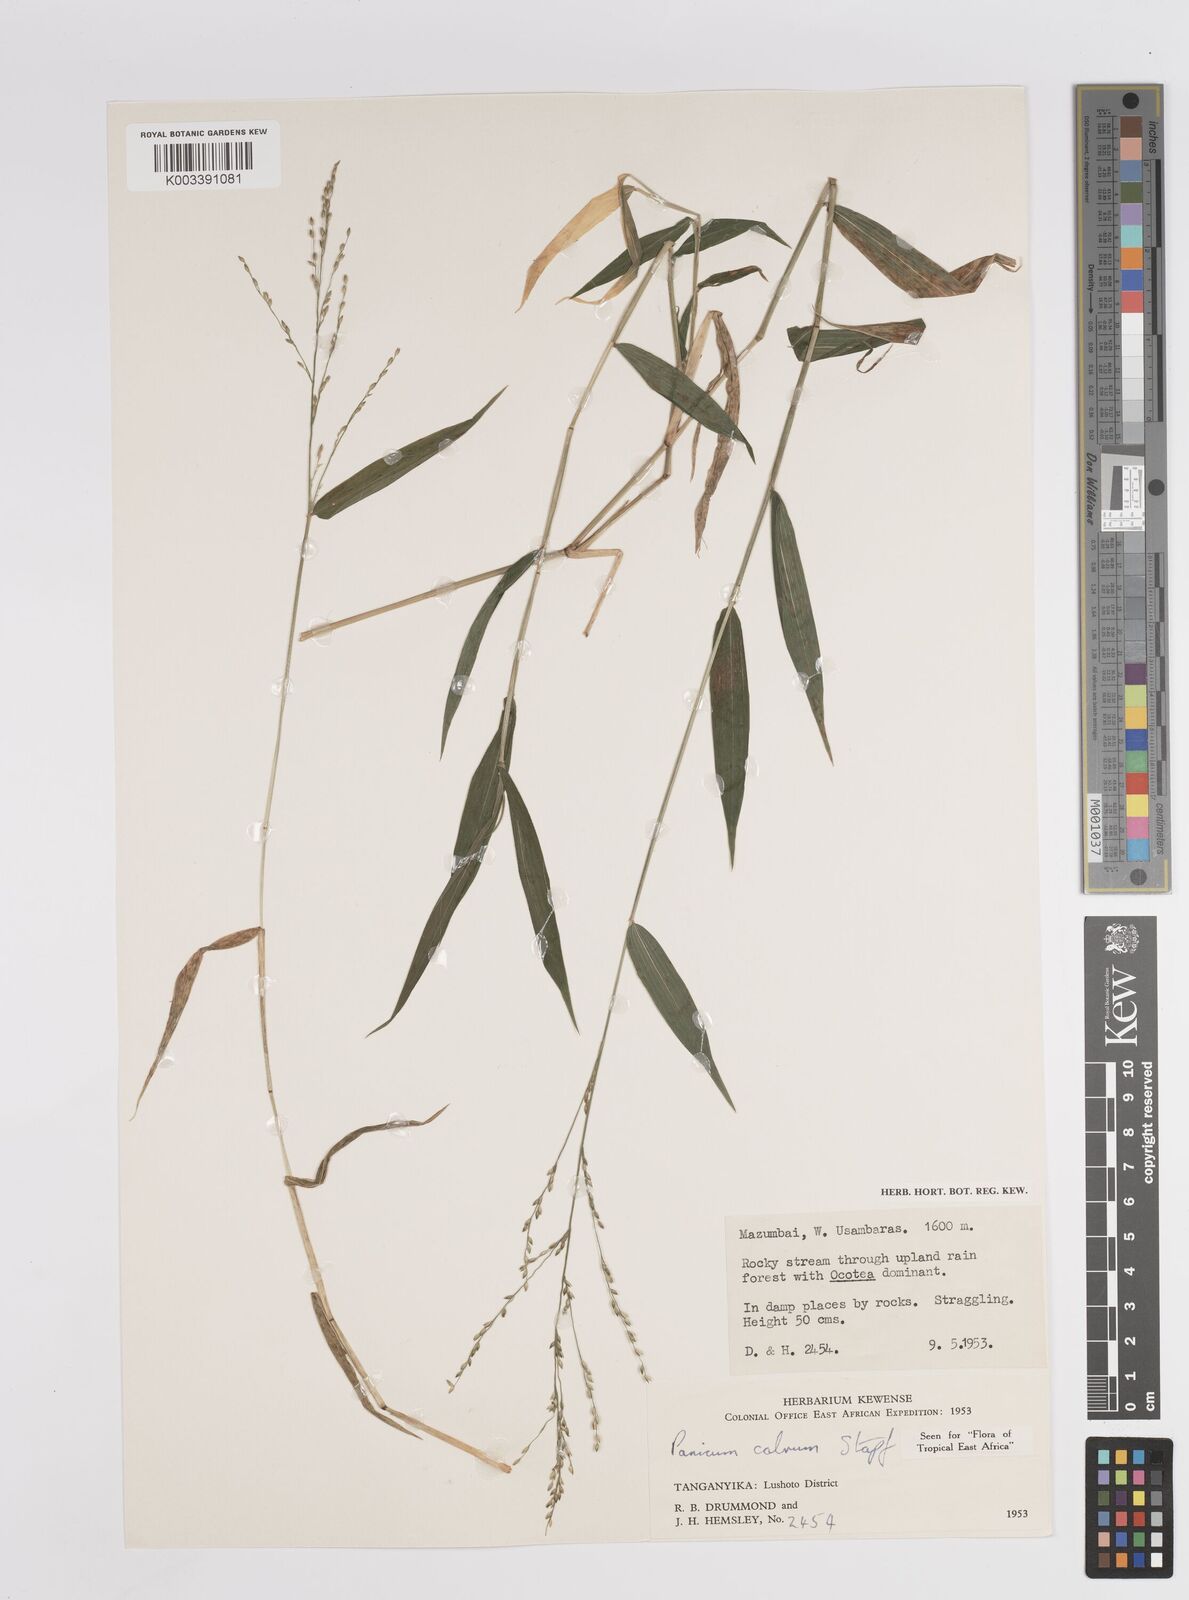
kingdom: Plantae
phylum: Tracheophyta
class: Liliopsida
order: Poales
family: Poaceae
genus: Panicum
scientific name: Panicum calvum
